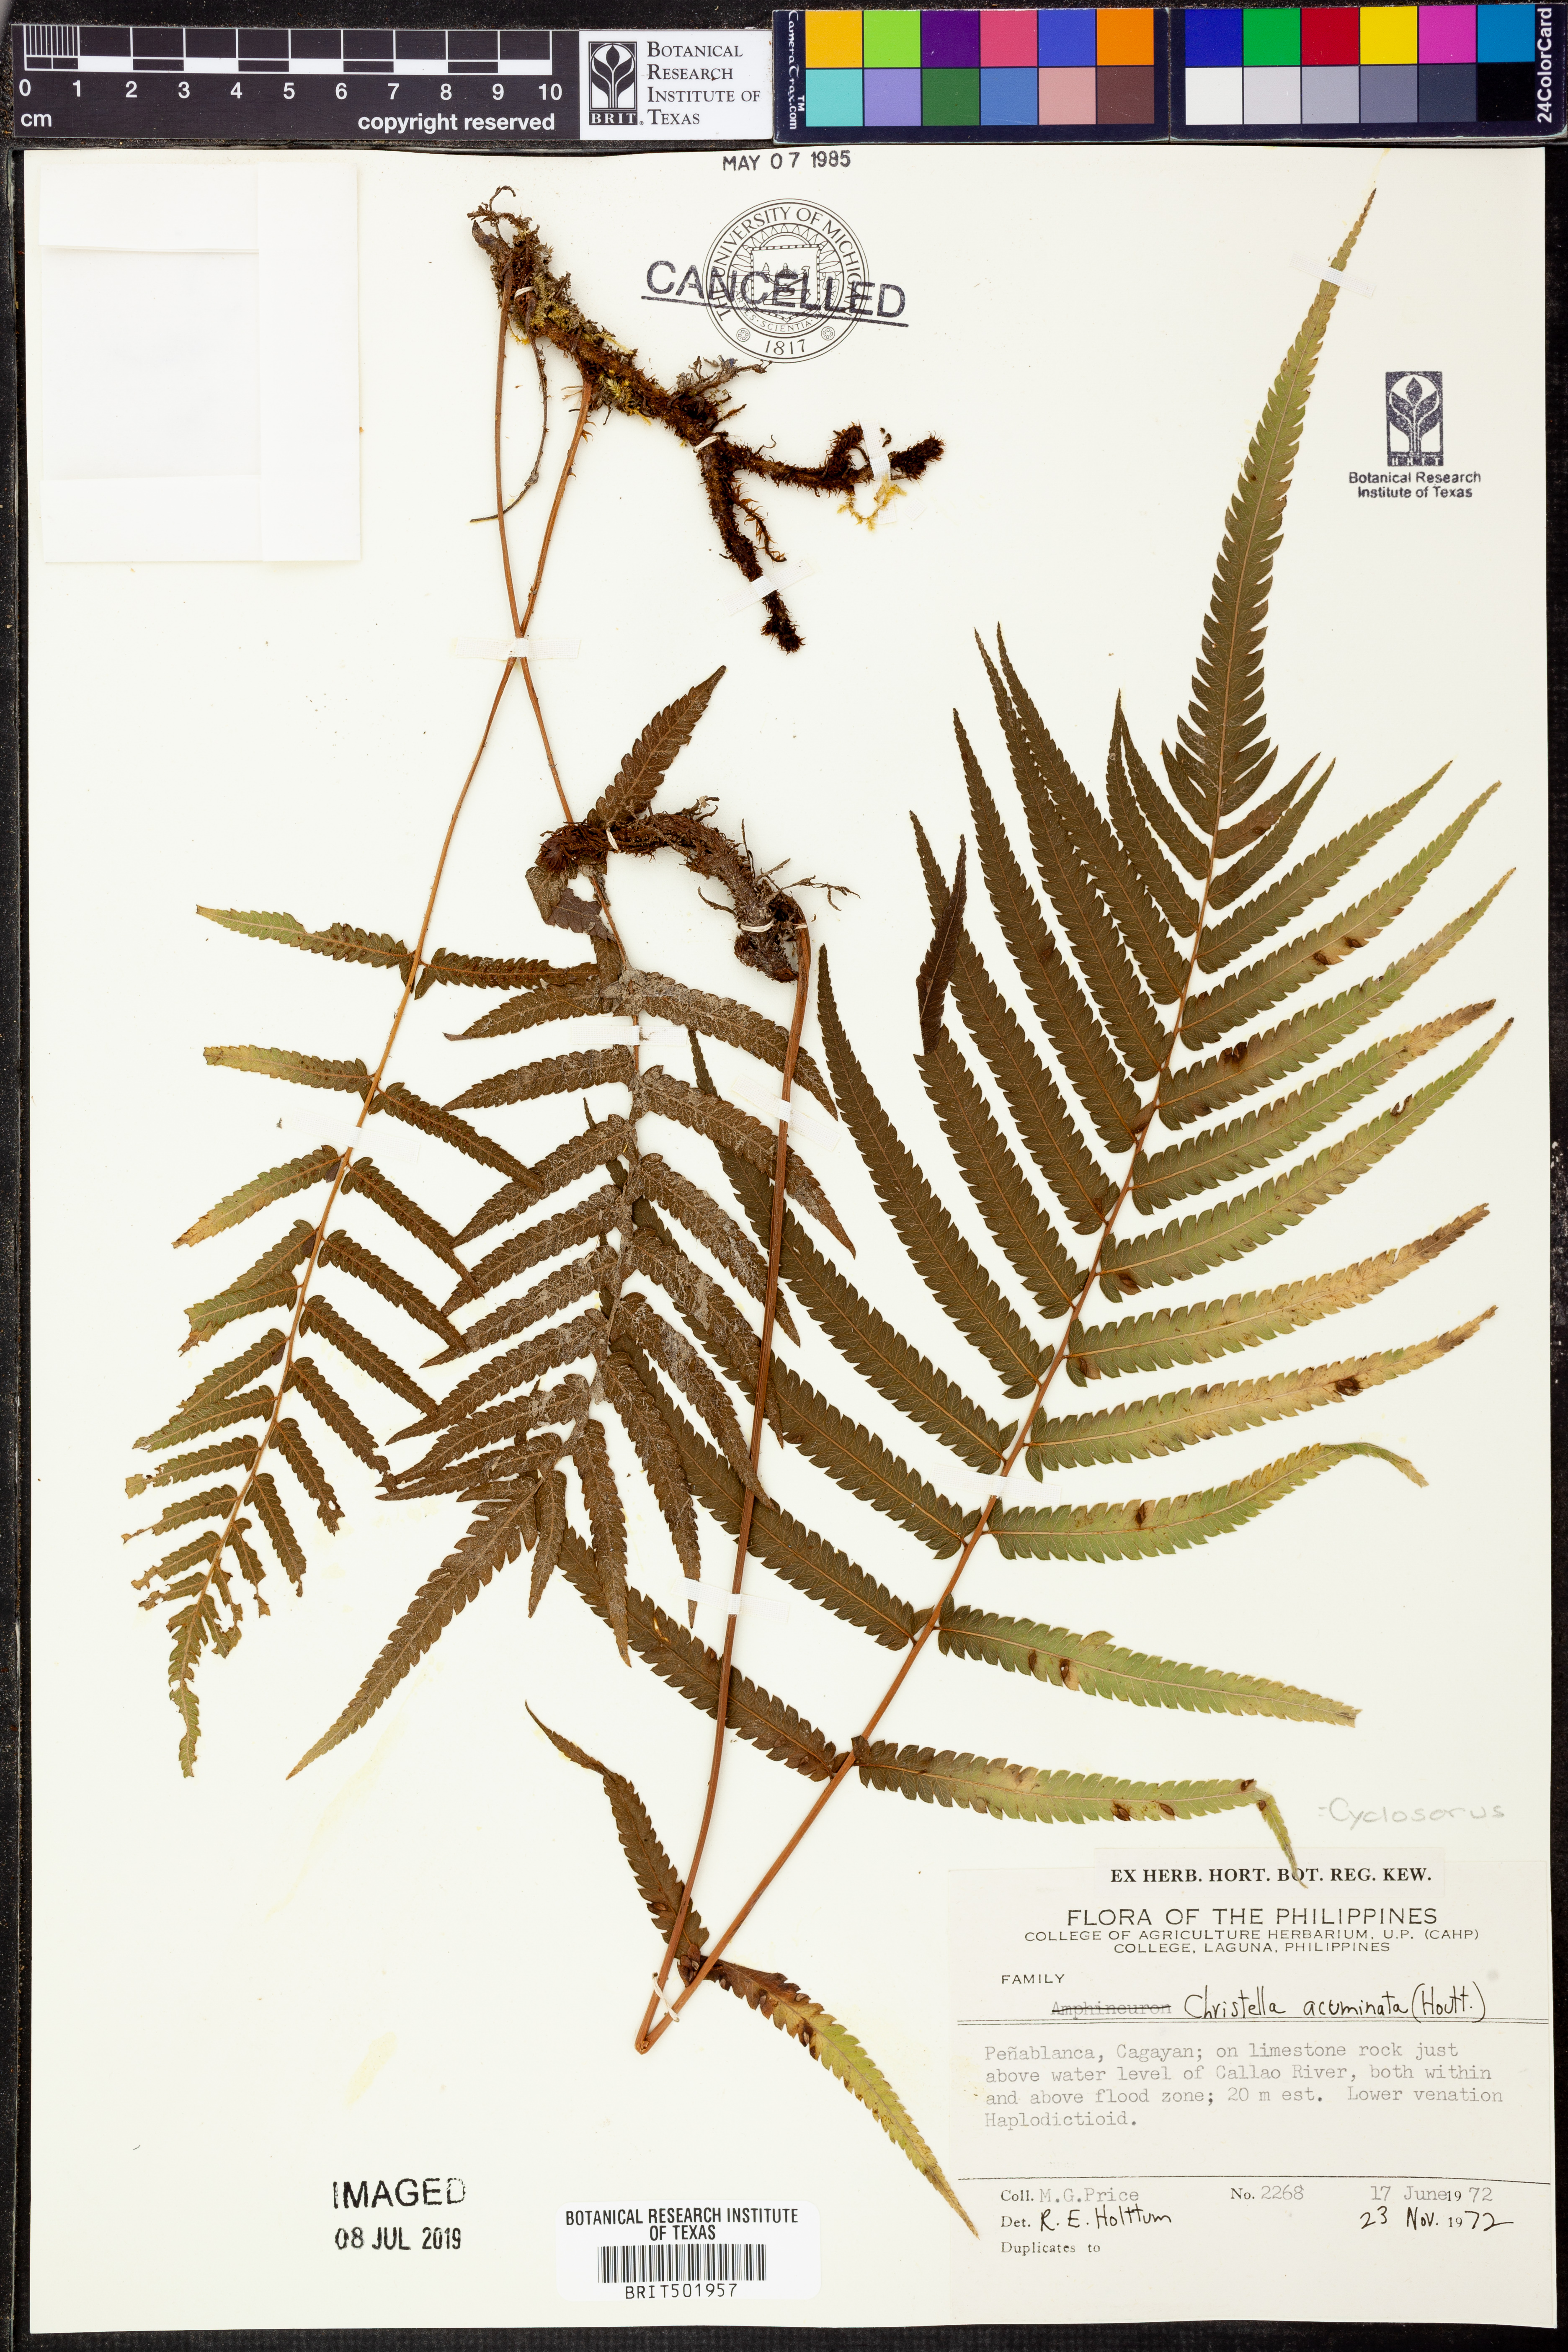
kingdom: Plantae
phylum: Tracheophyta
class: Polypodiopsida
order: Polypodiales
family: Thelypteridaceae
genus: Cyclosorus
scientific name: Cyclosorus acuminatus
